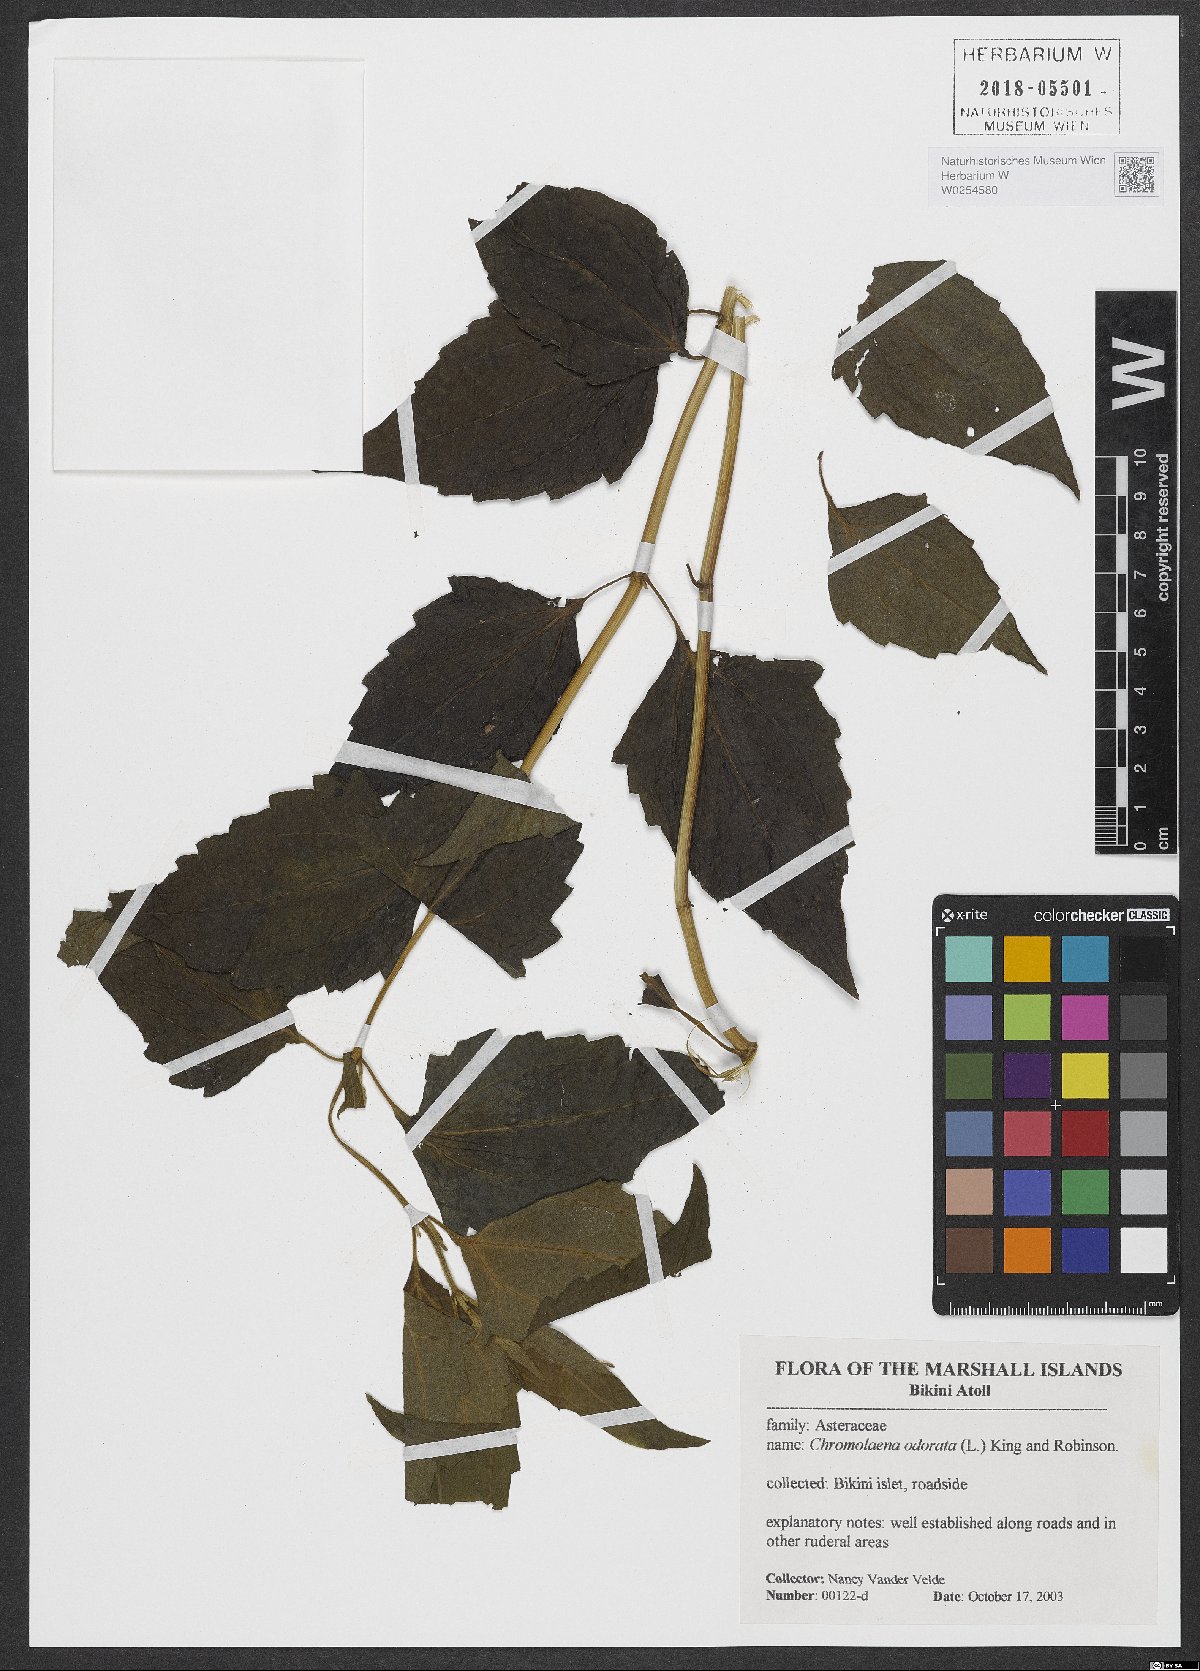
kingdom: Plantae
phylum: Tracheophyta
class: Magnoliopsida
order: Asterales
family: Asteraceae
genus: Chromolaena
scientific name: Chromolaena odorata
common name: Siamweed
